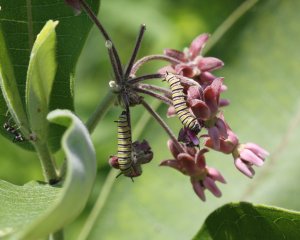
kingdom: Animalia
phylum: Arthropoda
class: Insecta
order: Lepidoptera
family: Nymphalidae
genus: Danaus
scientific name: Danaus plexippus
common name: Monarch
